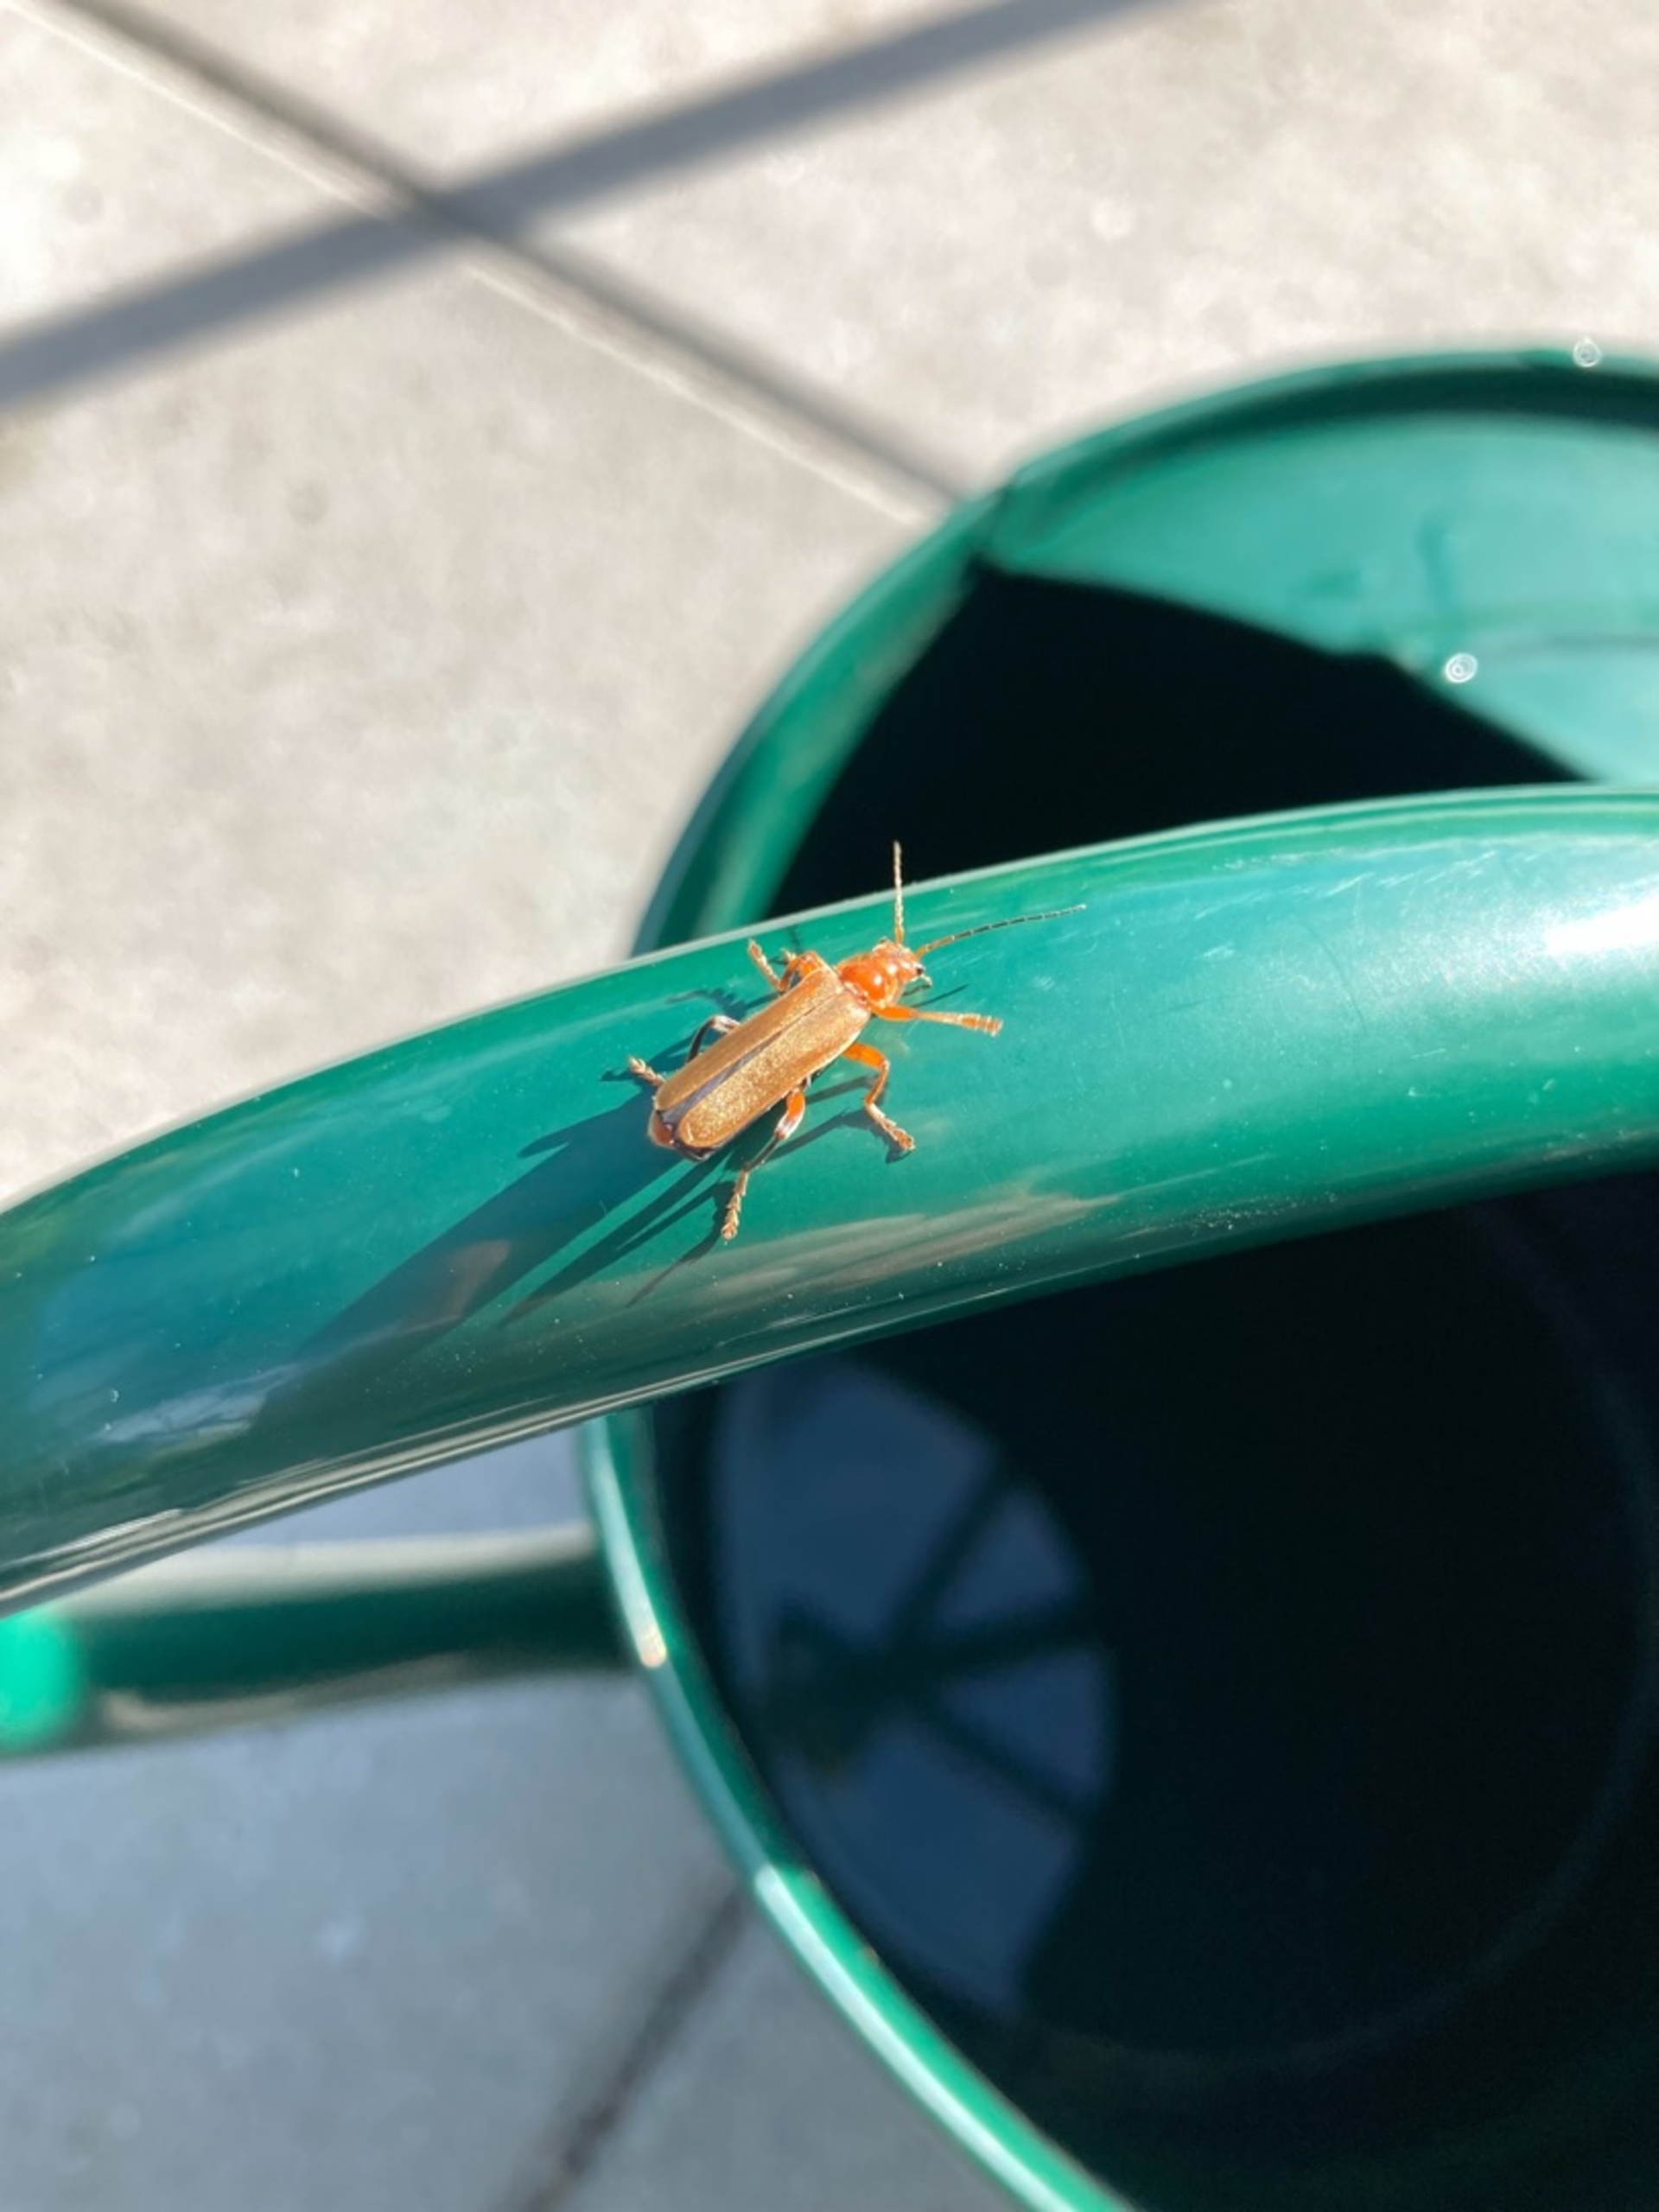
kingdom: Animalia
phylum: Arthropoda
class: Insecta
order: Coleoptera
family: Cantharidae
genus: Cantharis
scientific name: Cantharis livida
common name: Gul blødvinge
